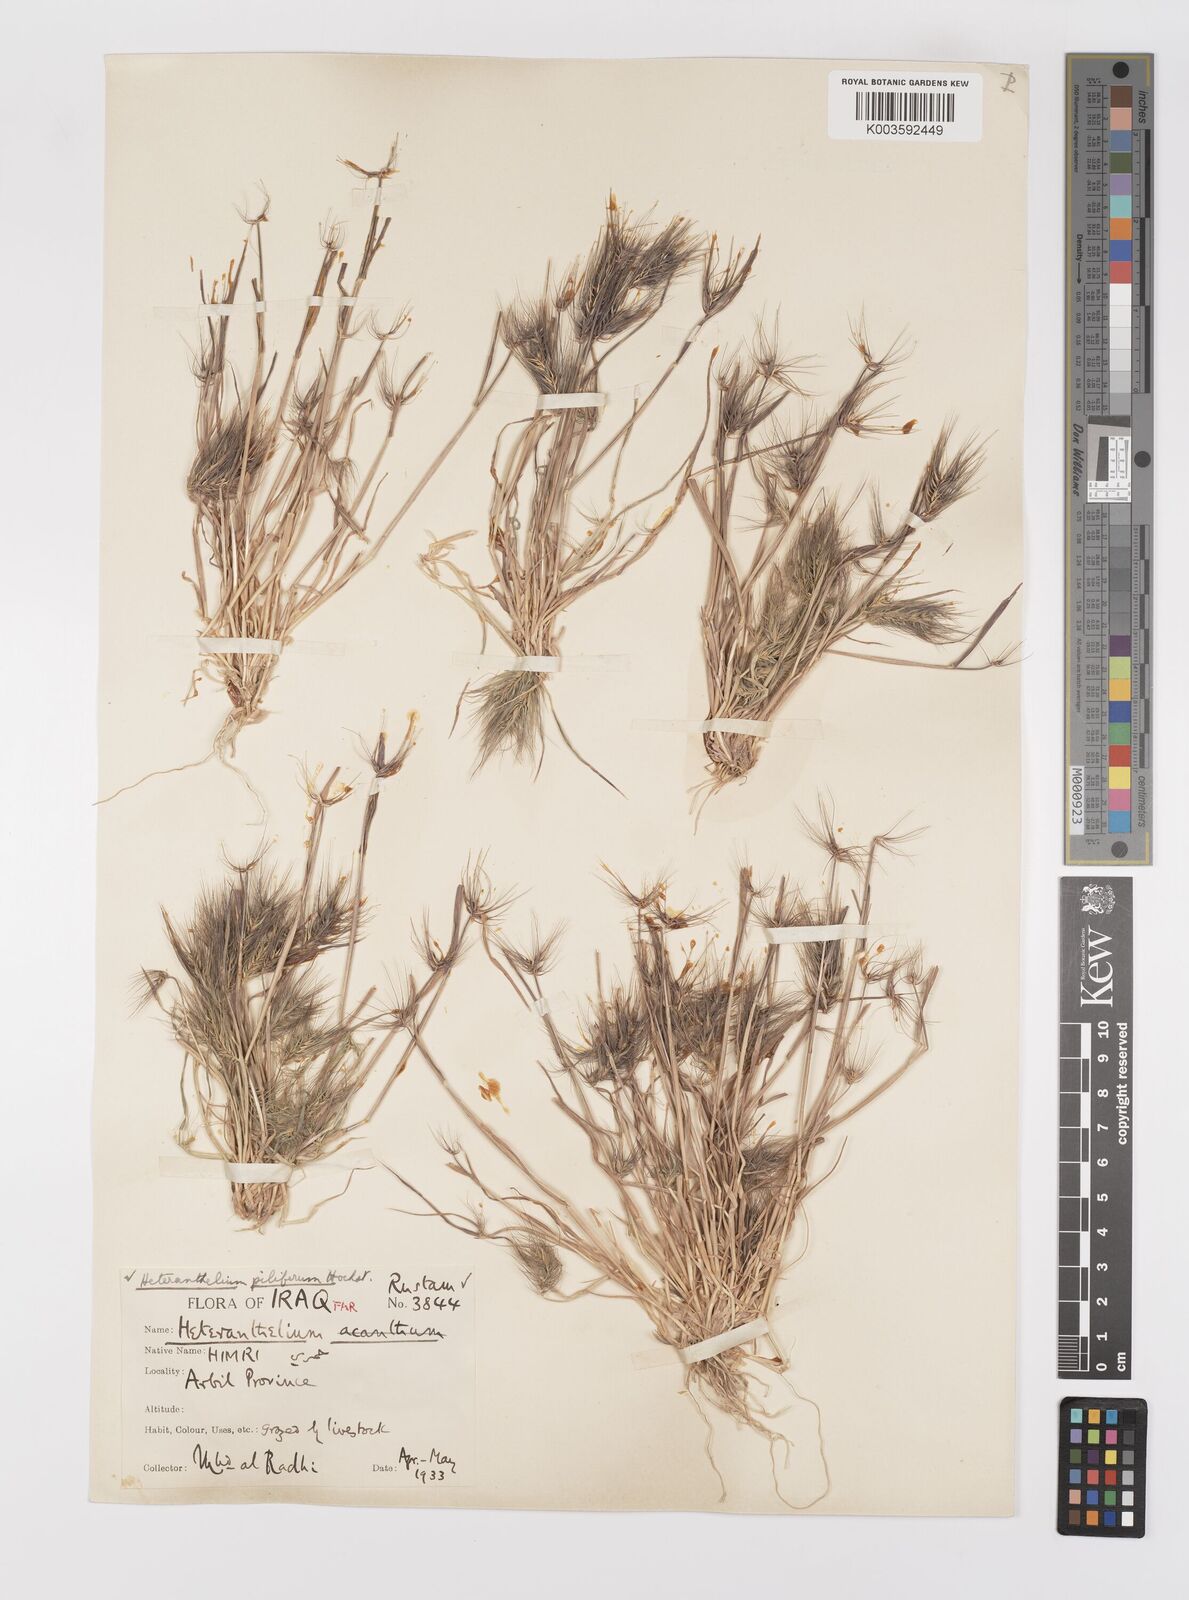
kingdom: Plantae
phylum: Tracheophyta
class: Liliopsida
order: Poales
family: Poaceae
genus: Heteranthelium
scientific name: Heteranthelium piliferum
